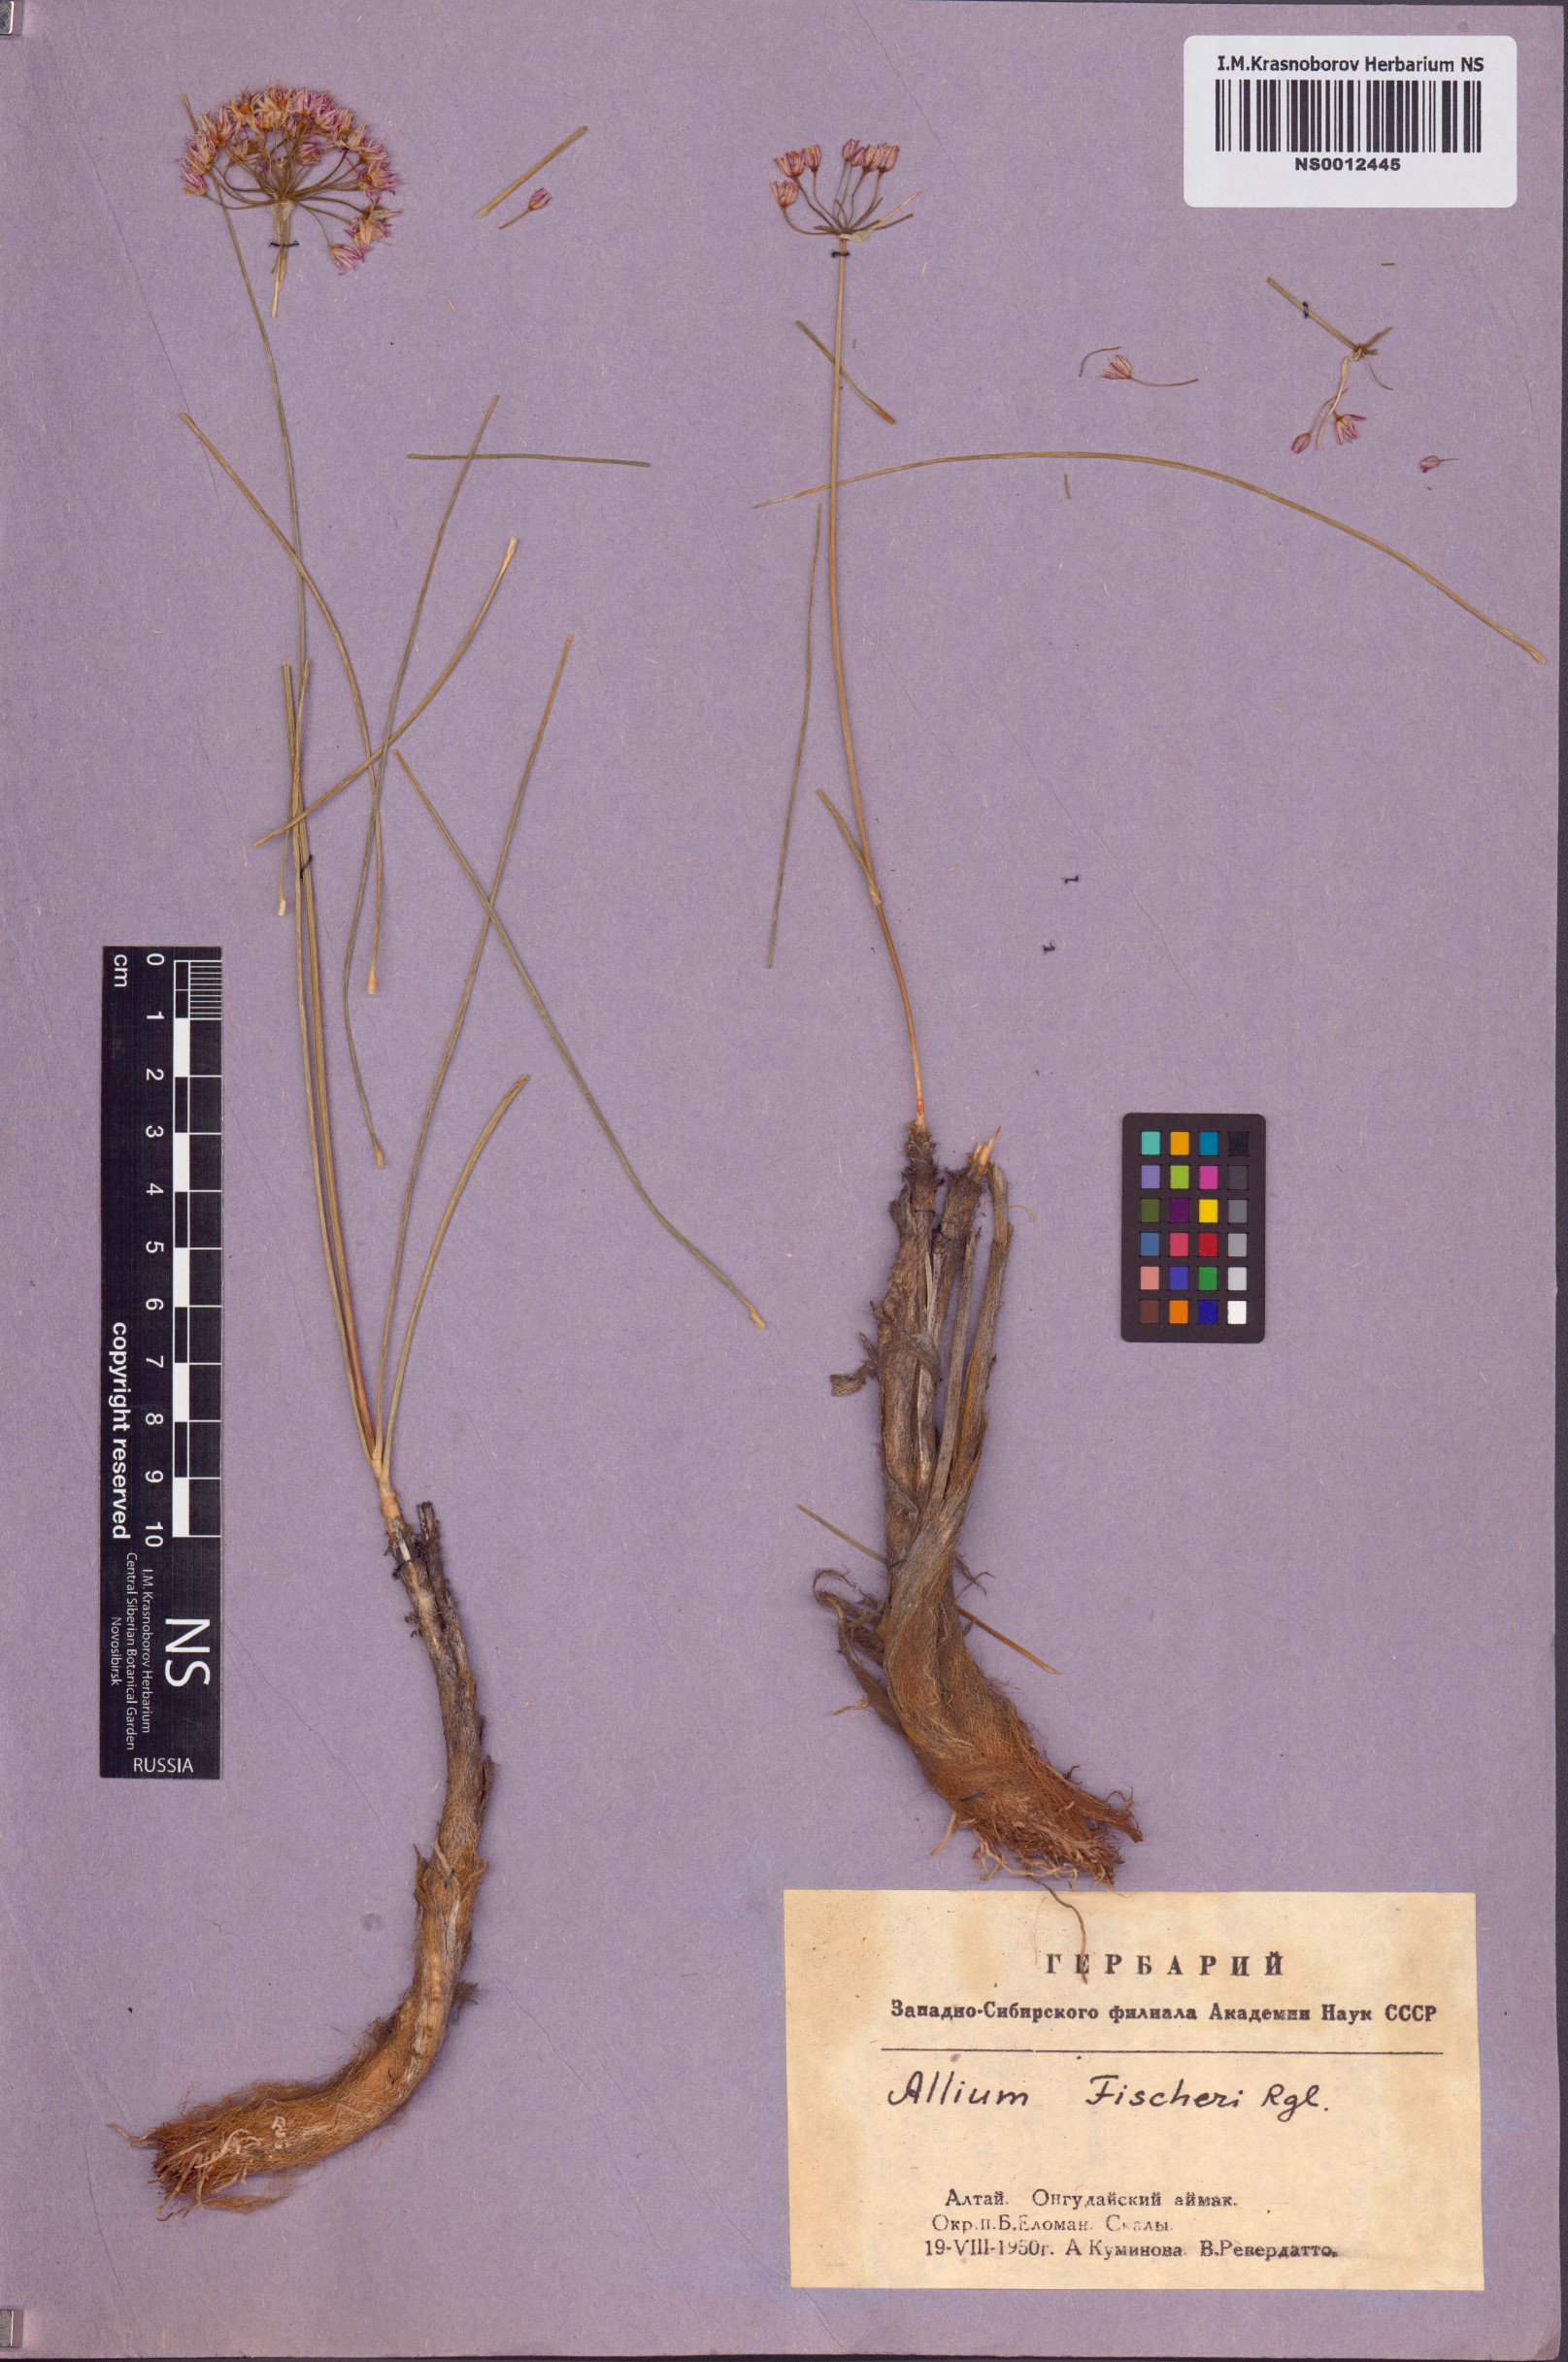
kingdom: Plantae
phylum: Tracheophyta
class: Liliopsida
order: Asparagales
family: Amaryllidaceae
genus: Allium
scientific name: Allium eduardi
